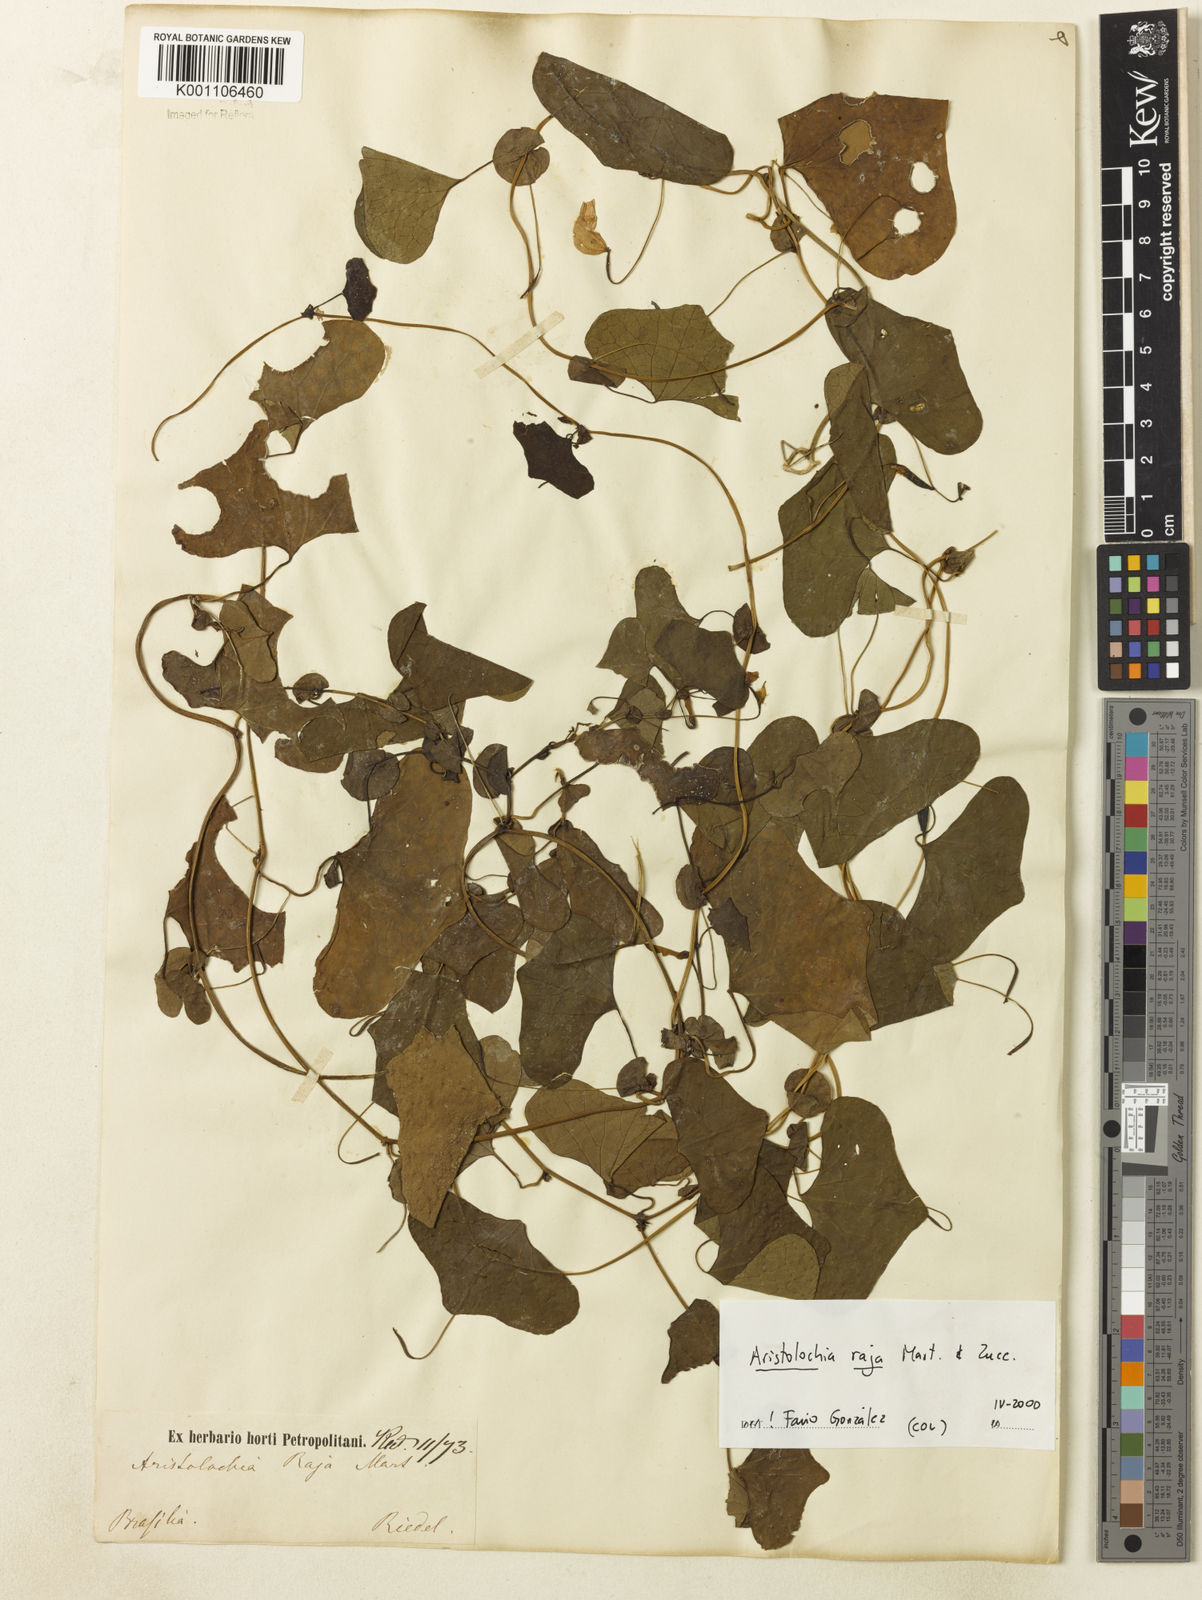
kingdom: Plantae
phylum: Tracheophyta
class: Magnoliopsida
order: Piperales
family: Aristolochiaceae
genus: Aristolochia
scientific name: Aristolochia raja
